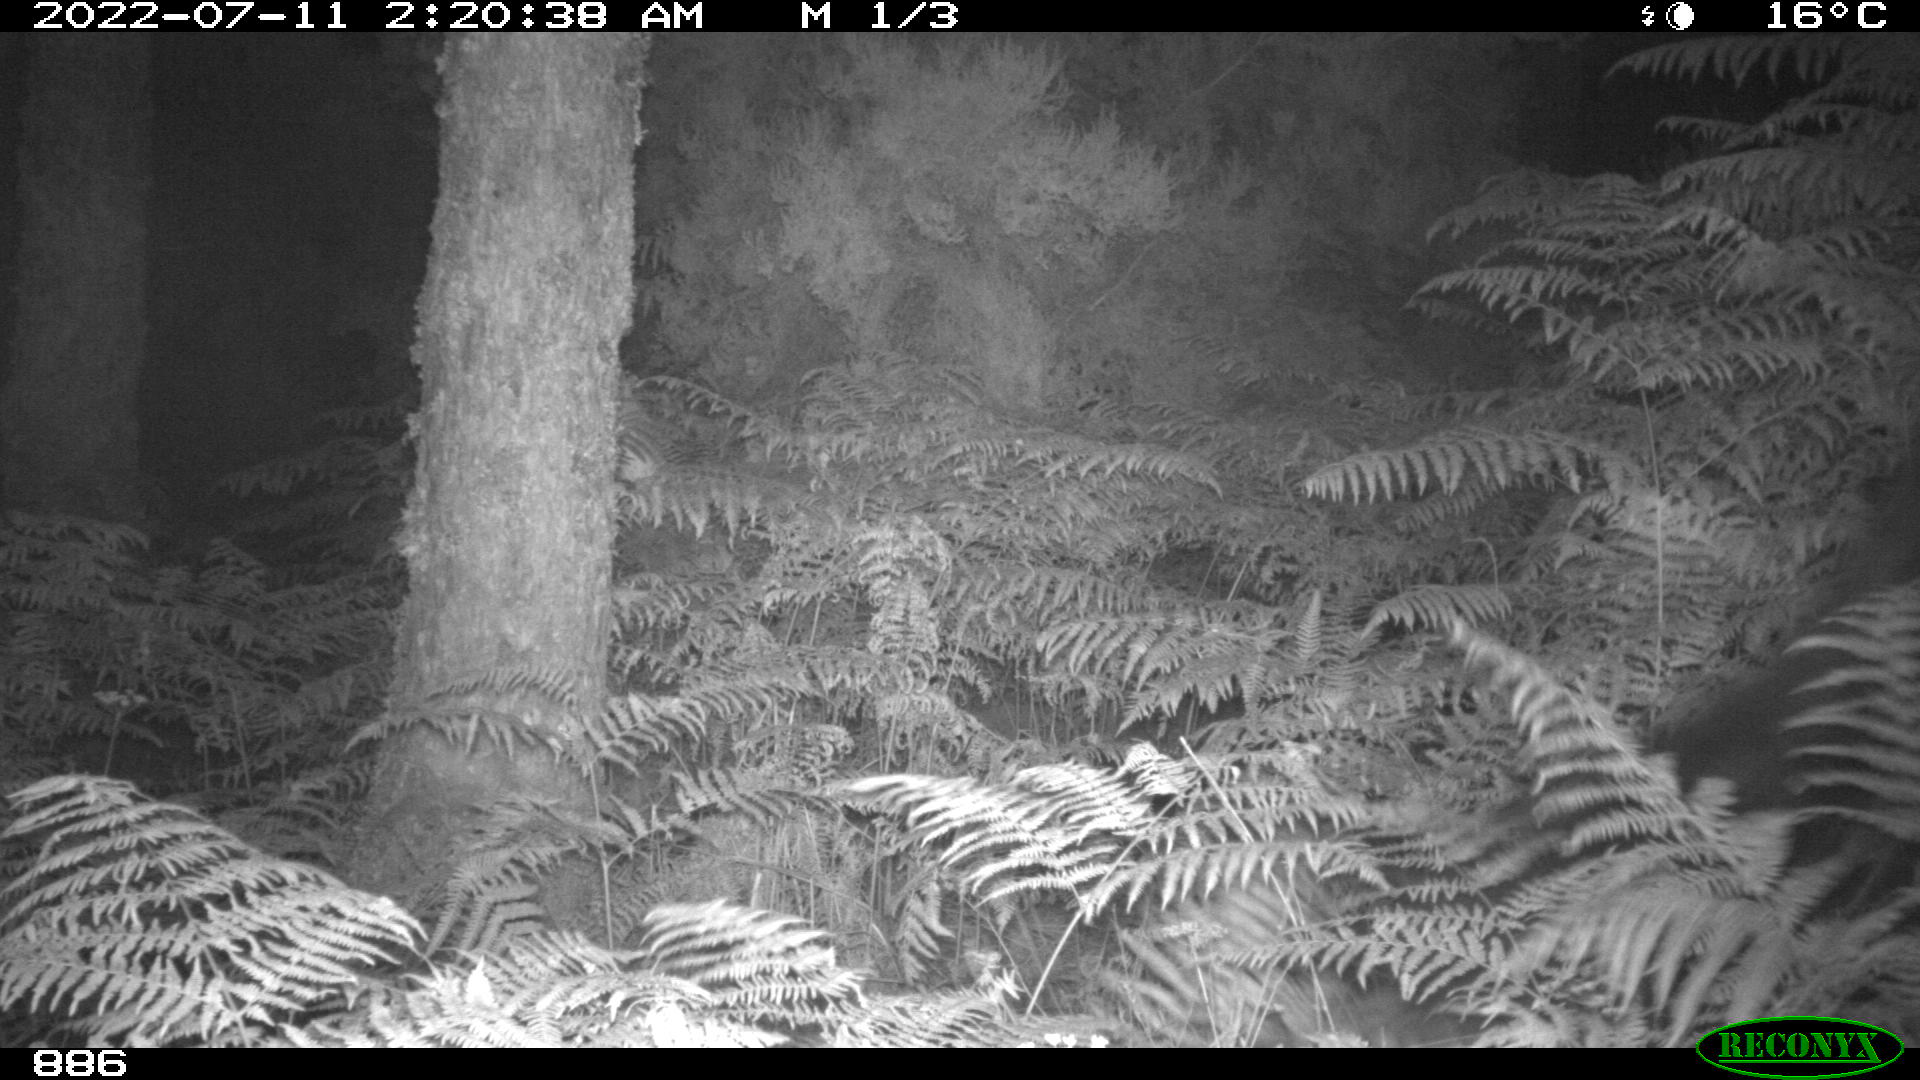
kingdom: Animalia
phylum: Chordata
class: Mammalia
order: Perissodactyla
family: Equidae
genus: Equus
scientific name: Equus caballus
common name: Horse
